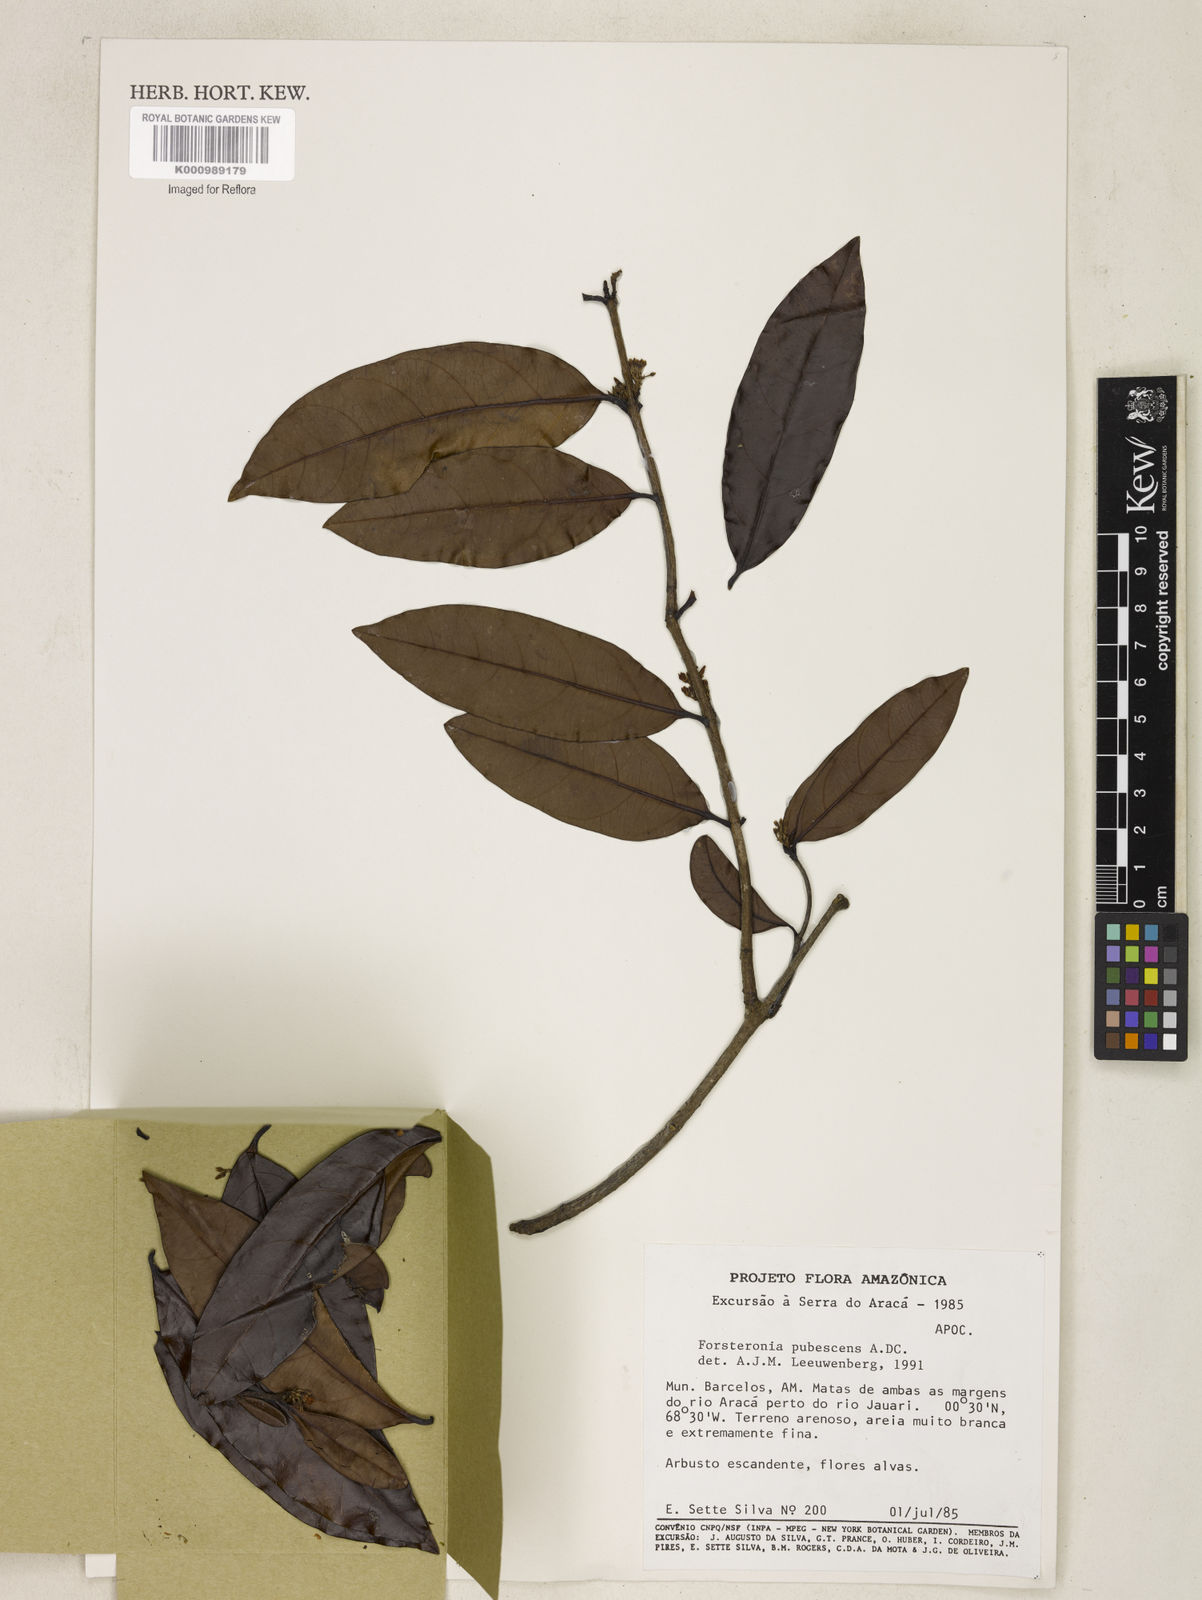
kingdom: Plantae
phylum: Tracheophyta
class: Magnoliopsida
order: Gentianales
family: Apocynaceae
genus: Forsteronia
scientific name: Forsteronia
